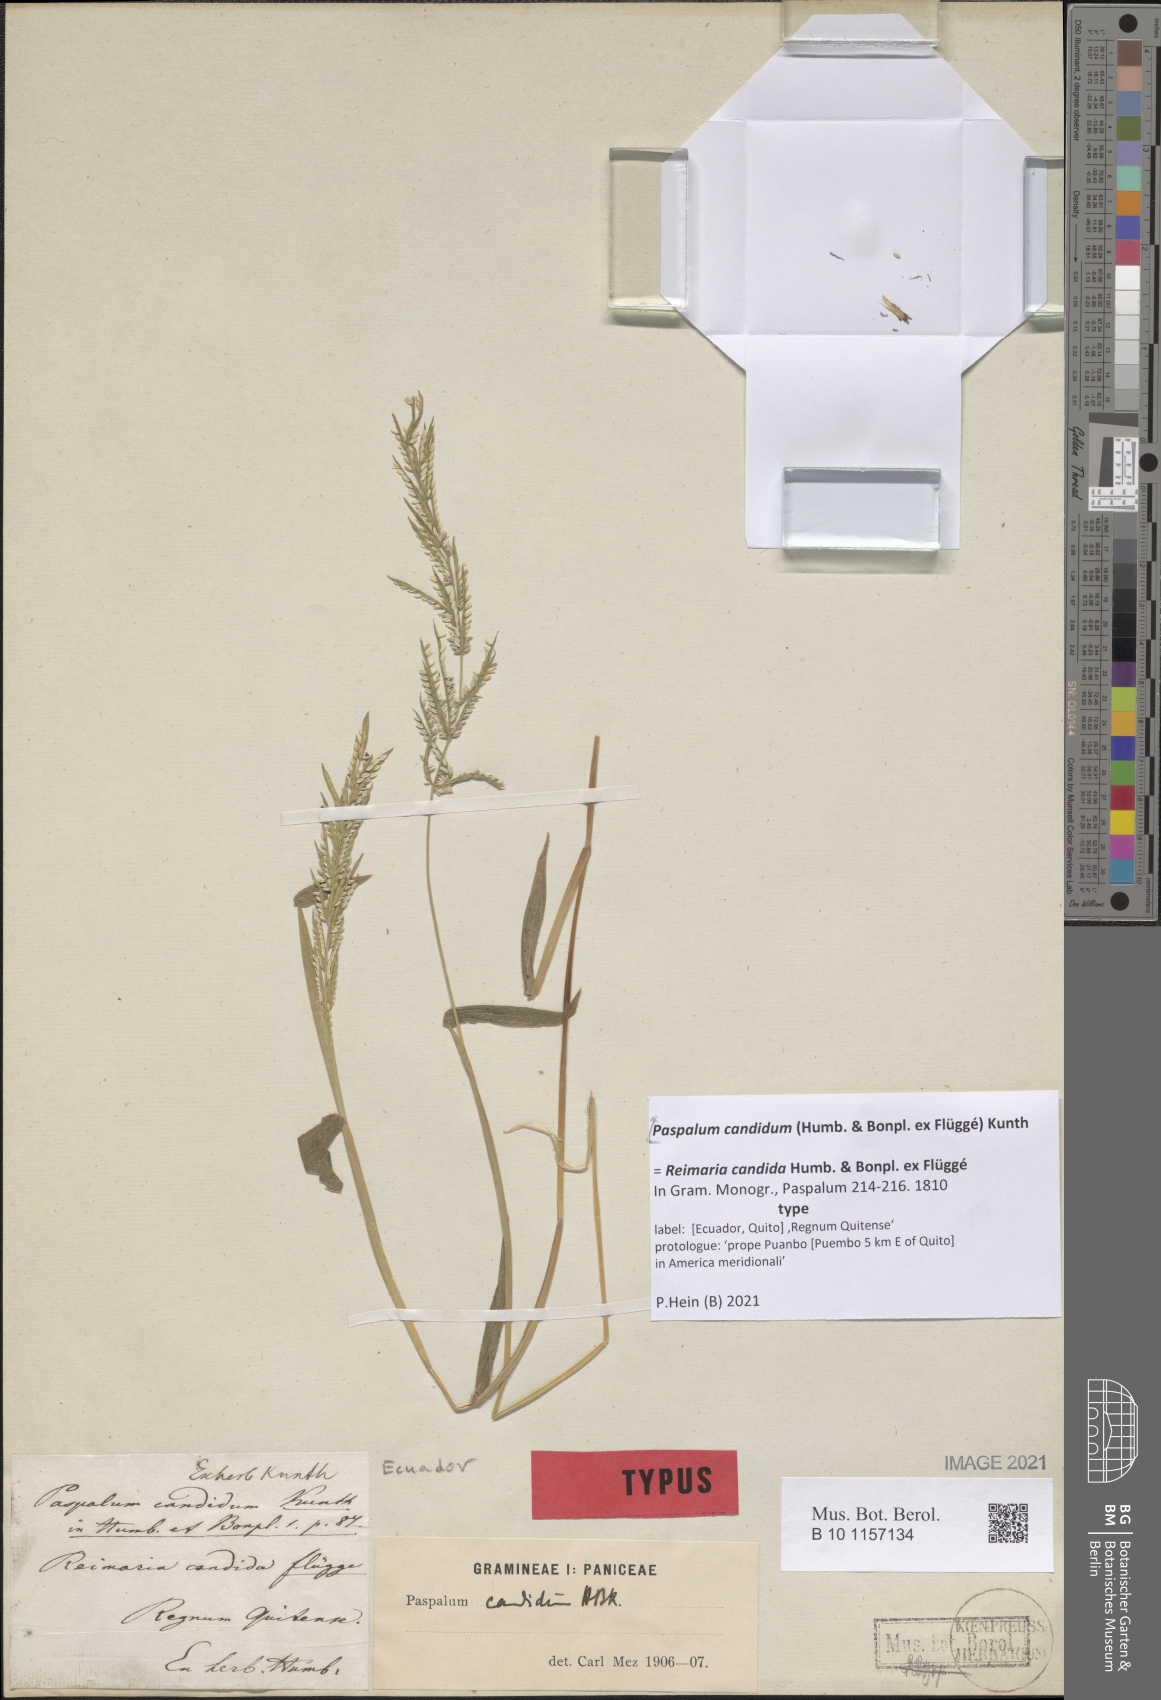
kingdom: Plantae
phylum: Tracheophyta
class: Liliopsida
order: Poales
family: Poaceae
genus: Paspalum
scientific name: Paspalum candidum
